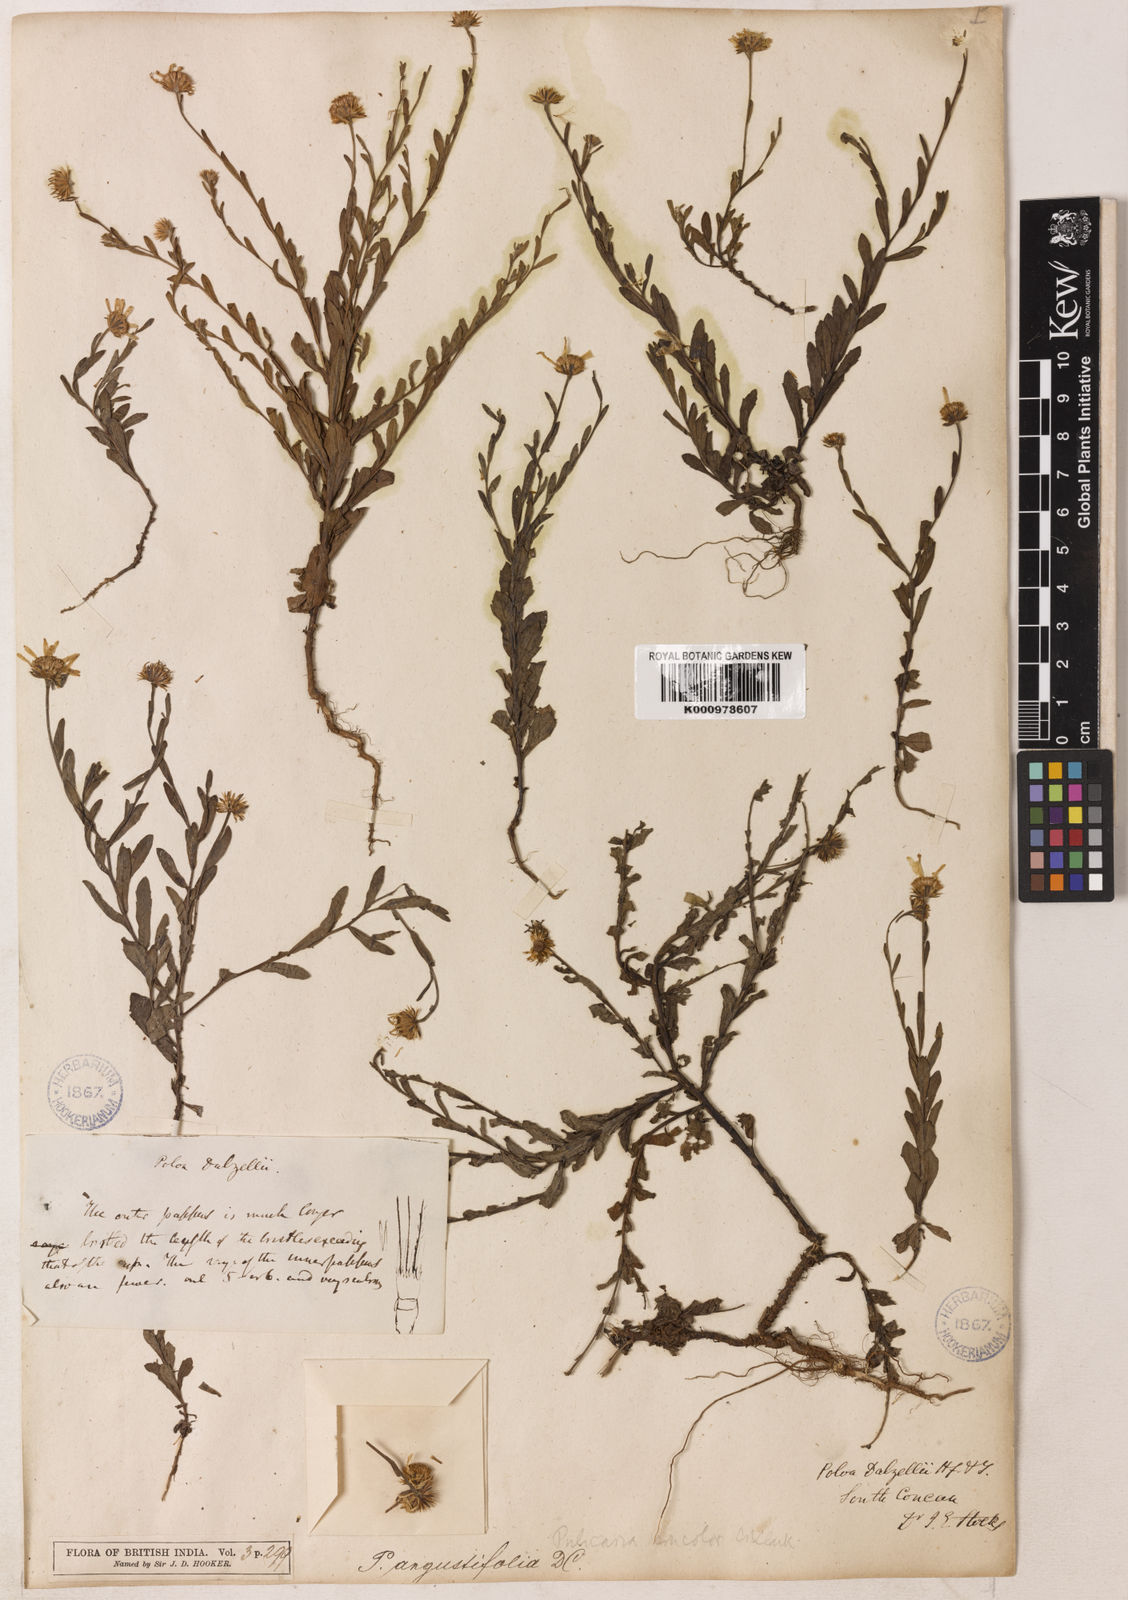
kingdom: Plantae
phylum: Tracheophyta
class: Magnoliopsida
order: Asterales
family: Asteraceae
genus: Pulicaria
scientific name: Pulicaria angustifolia
